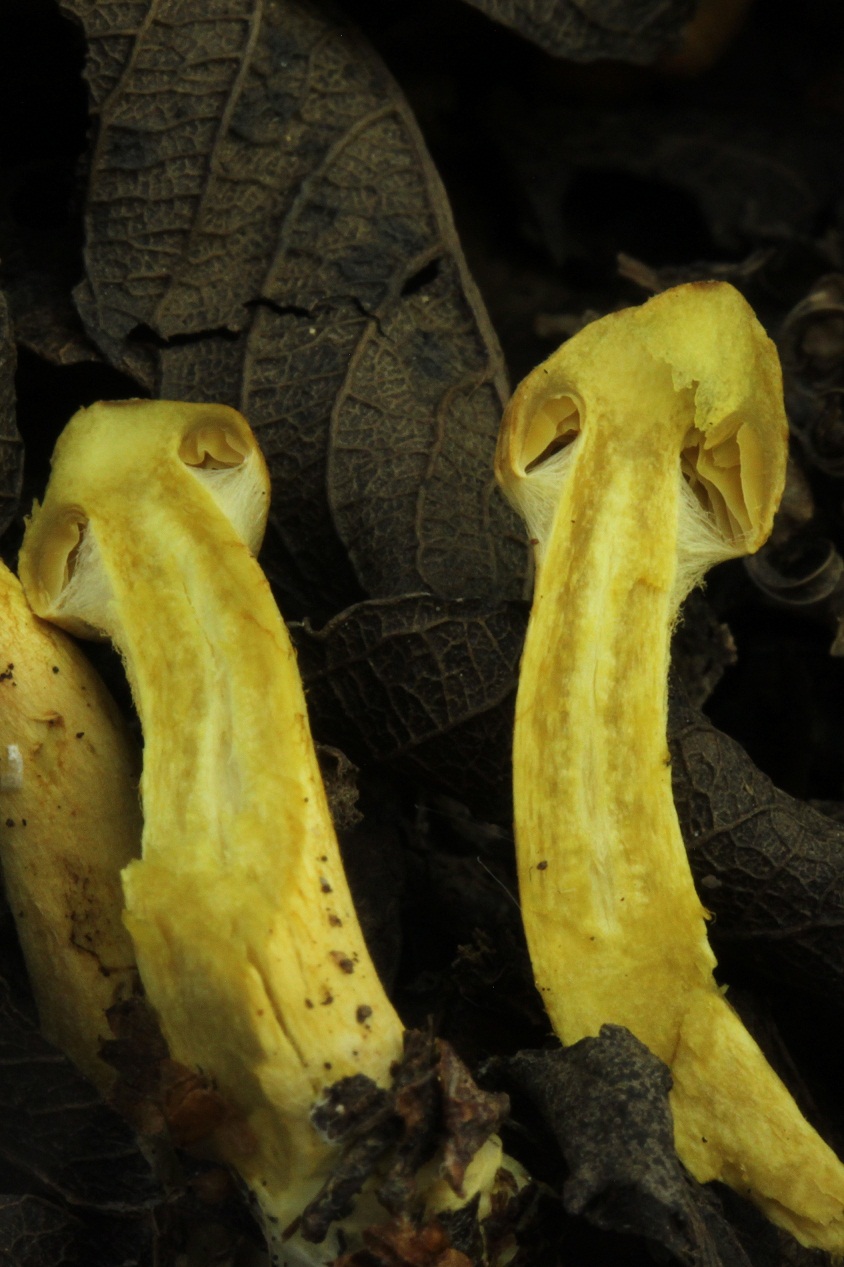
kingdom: Fungi
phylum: Basidiomycota
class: Agaricomycetes
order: Agaricales
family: Cortinariaceae
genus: Cortinarius
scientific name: Cortinarius uliginosus
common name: Marsh webcap
